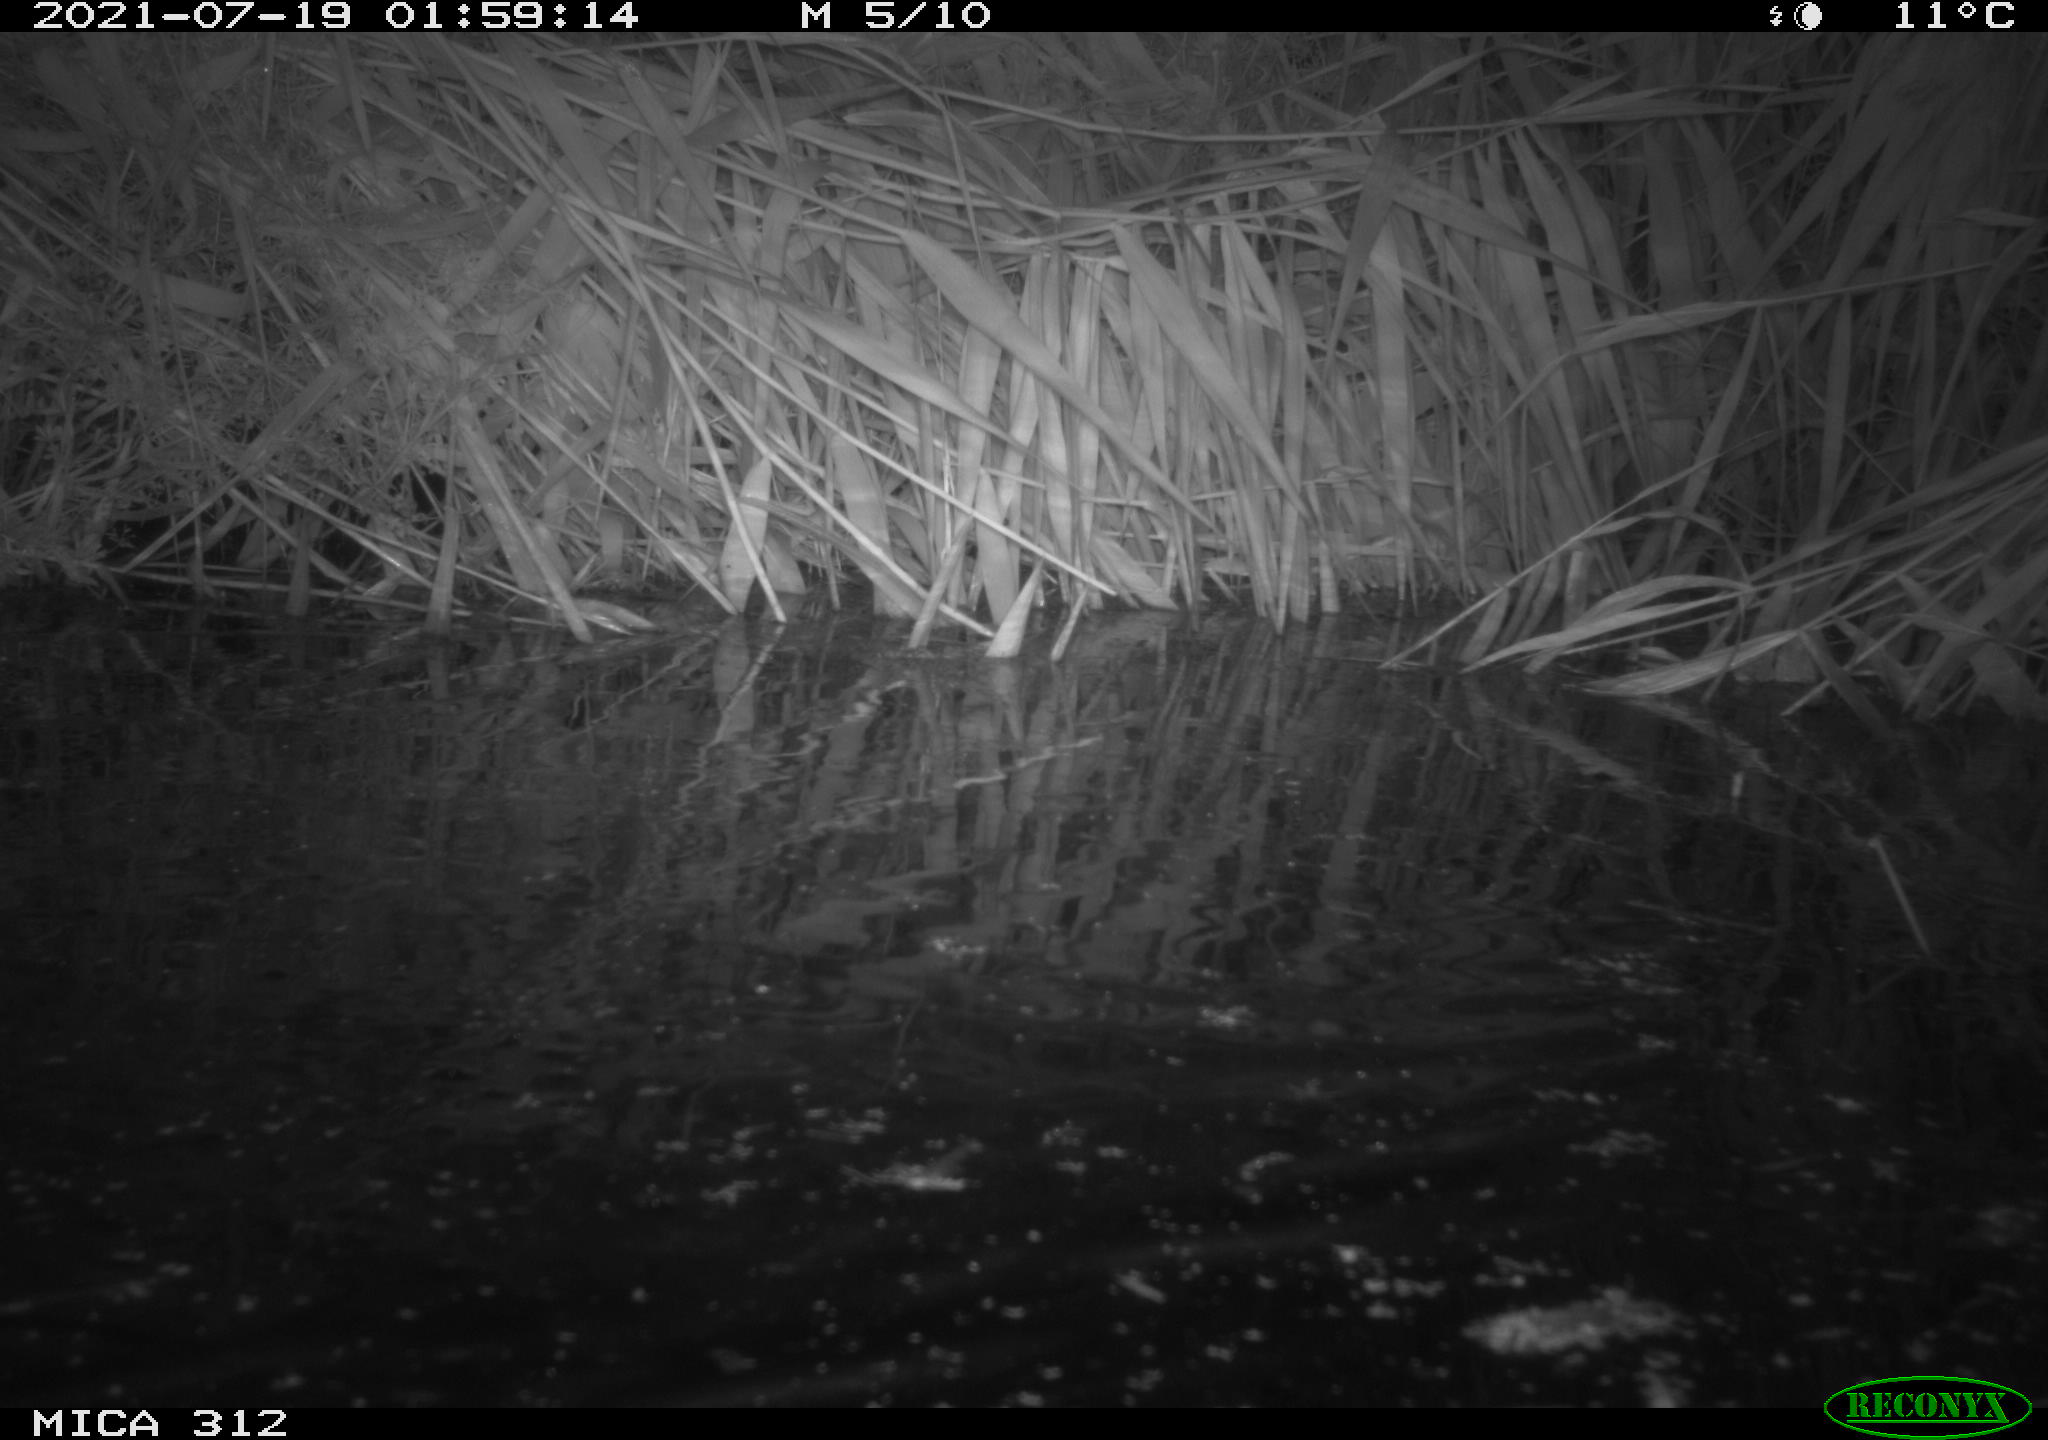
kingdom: Animalia
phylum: Chordata
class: Mammalia
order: Rodentia
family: Muridae
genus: Rattus
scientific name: Rattus norvegicus
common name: Brown rat
